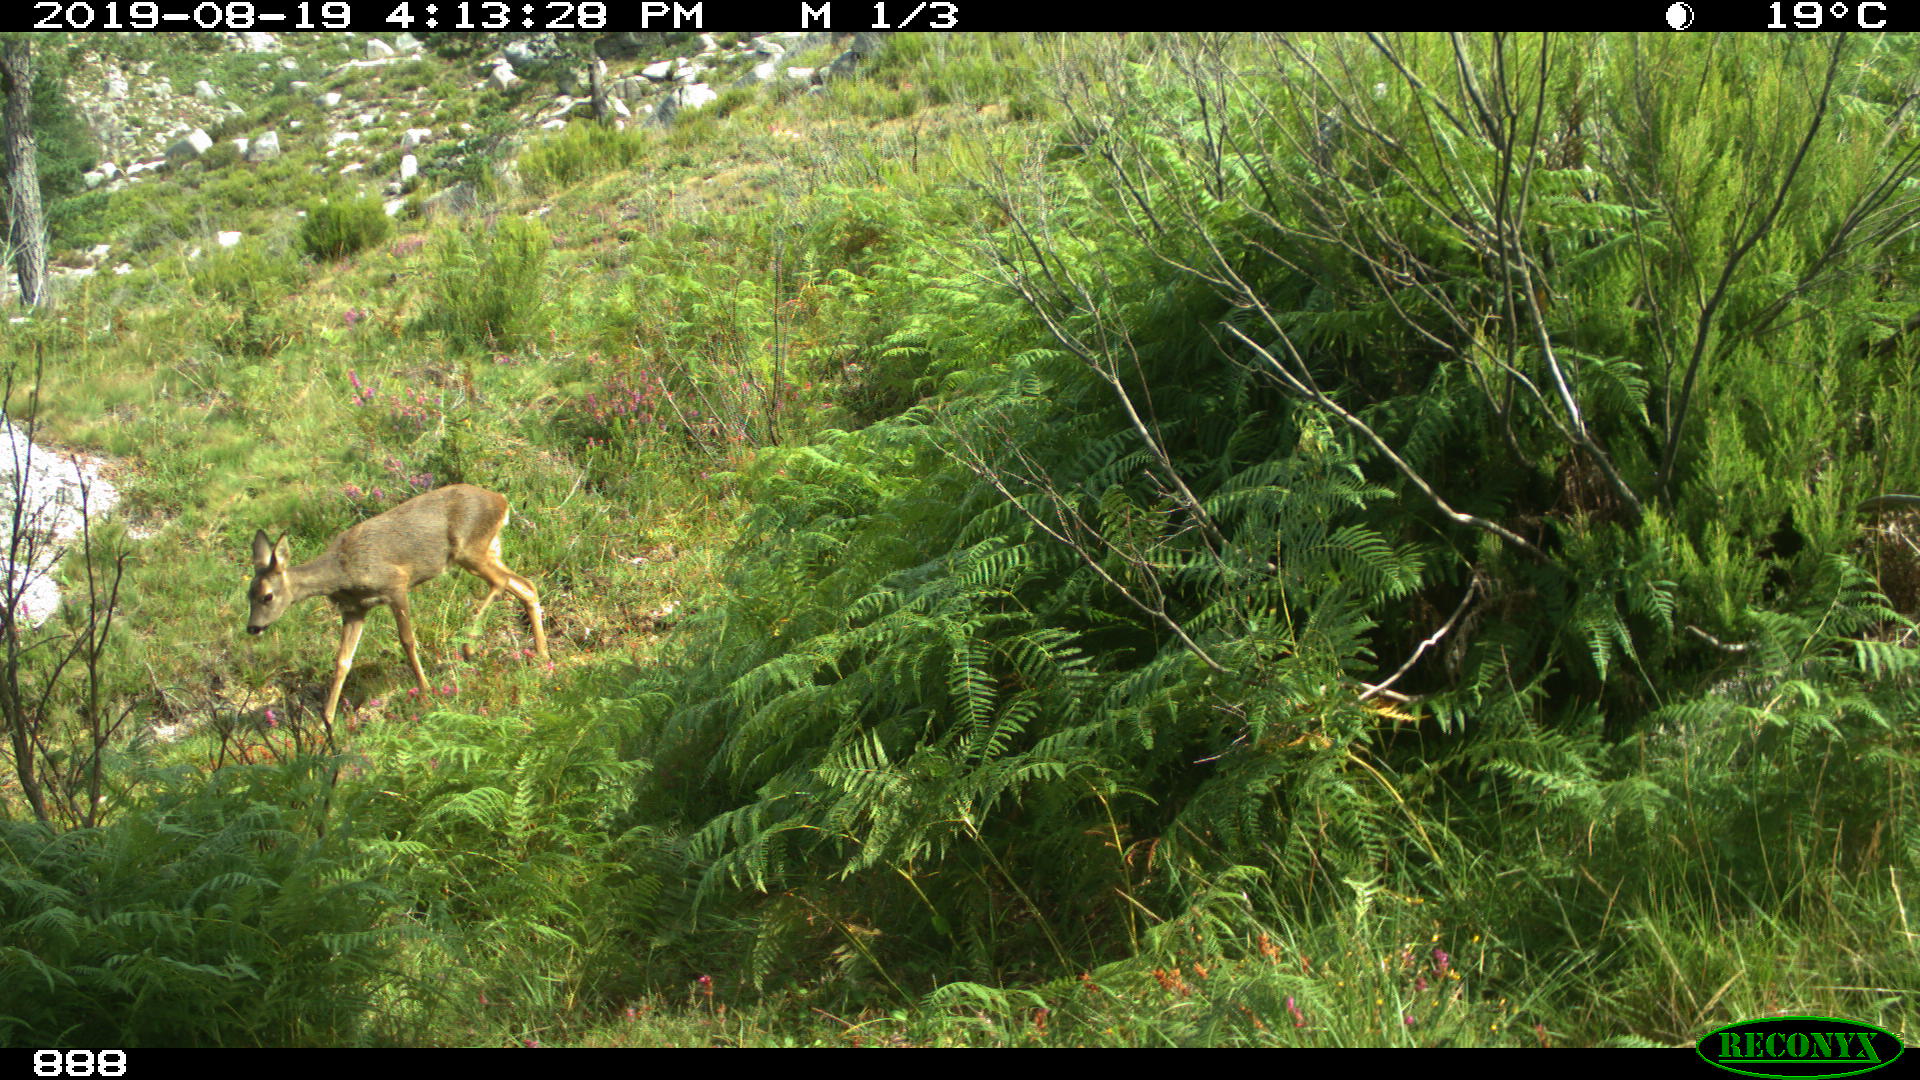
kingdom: Animalia
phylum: Chordata
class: Mammalia
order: Artiodactyla
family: Cervidae
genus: Capreolus
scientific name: Capreolus capreolus
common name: Western roe deer
